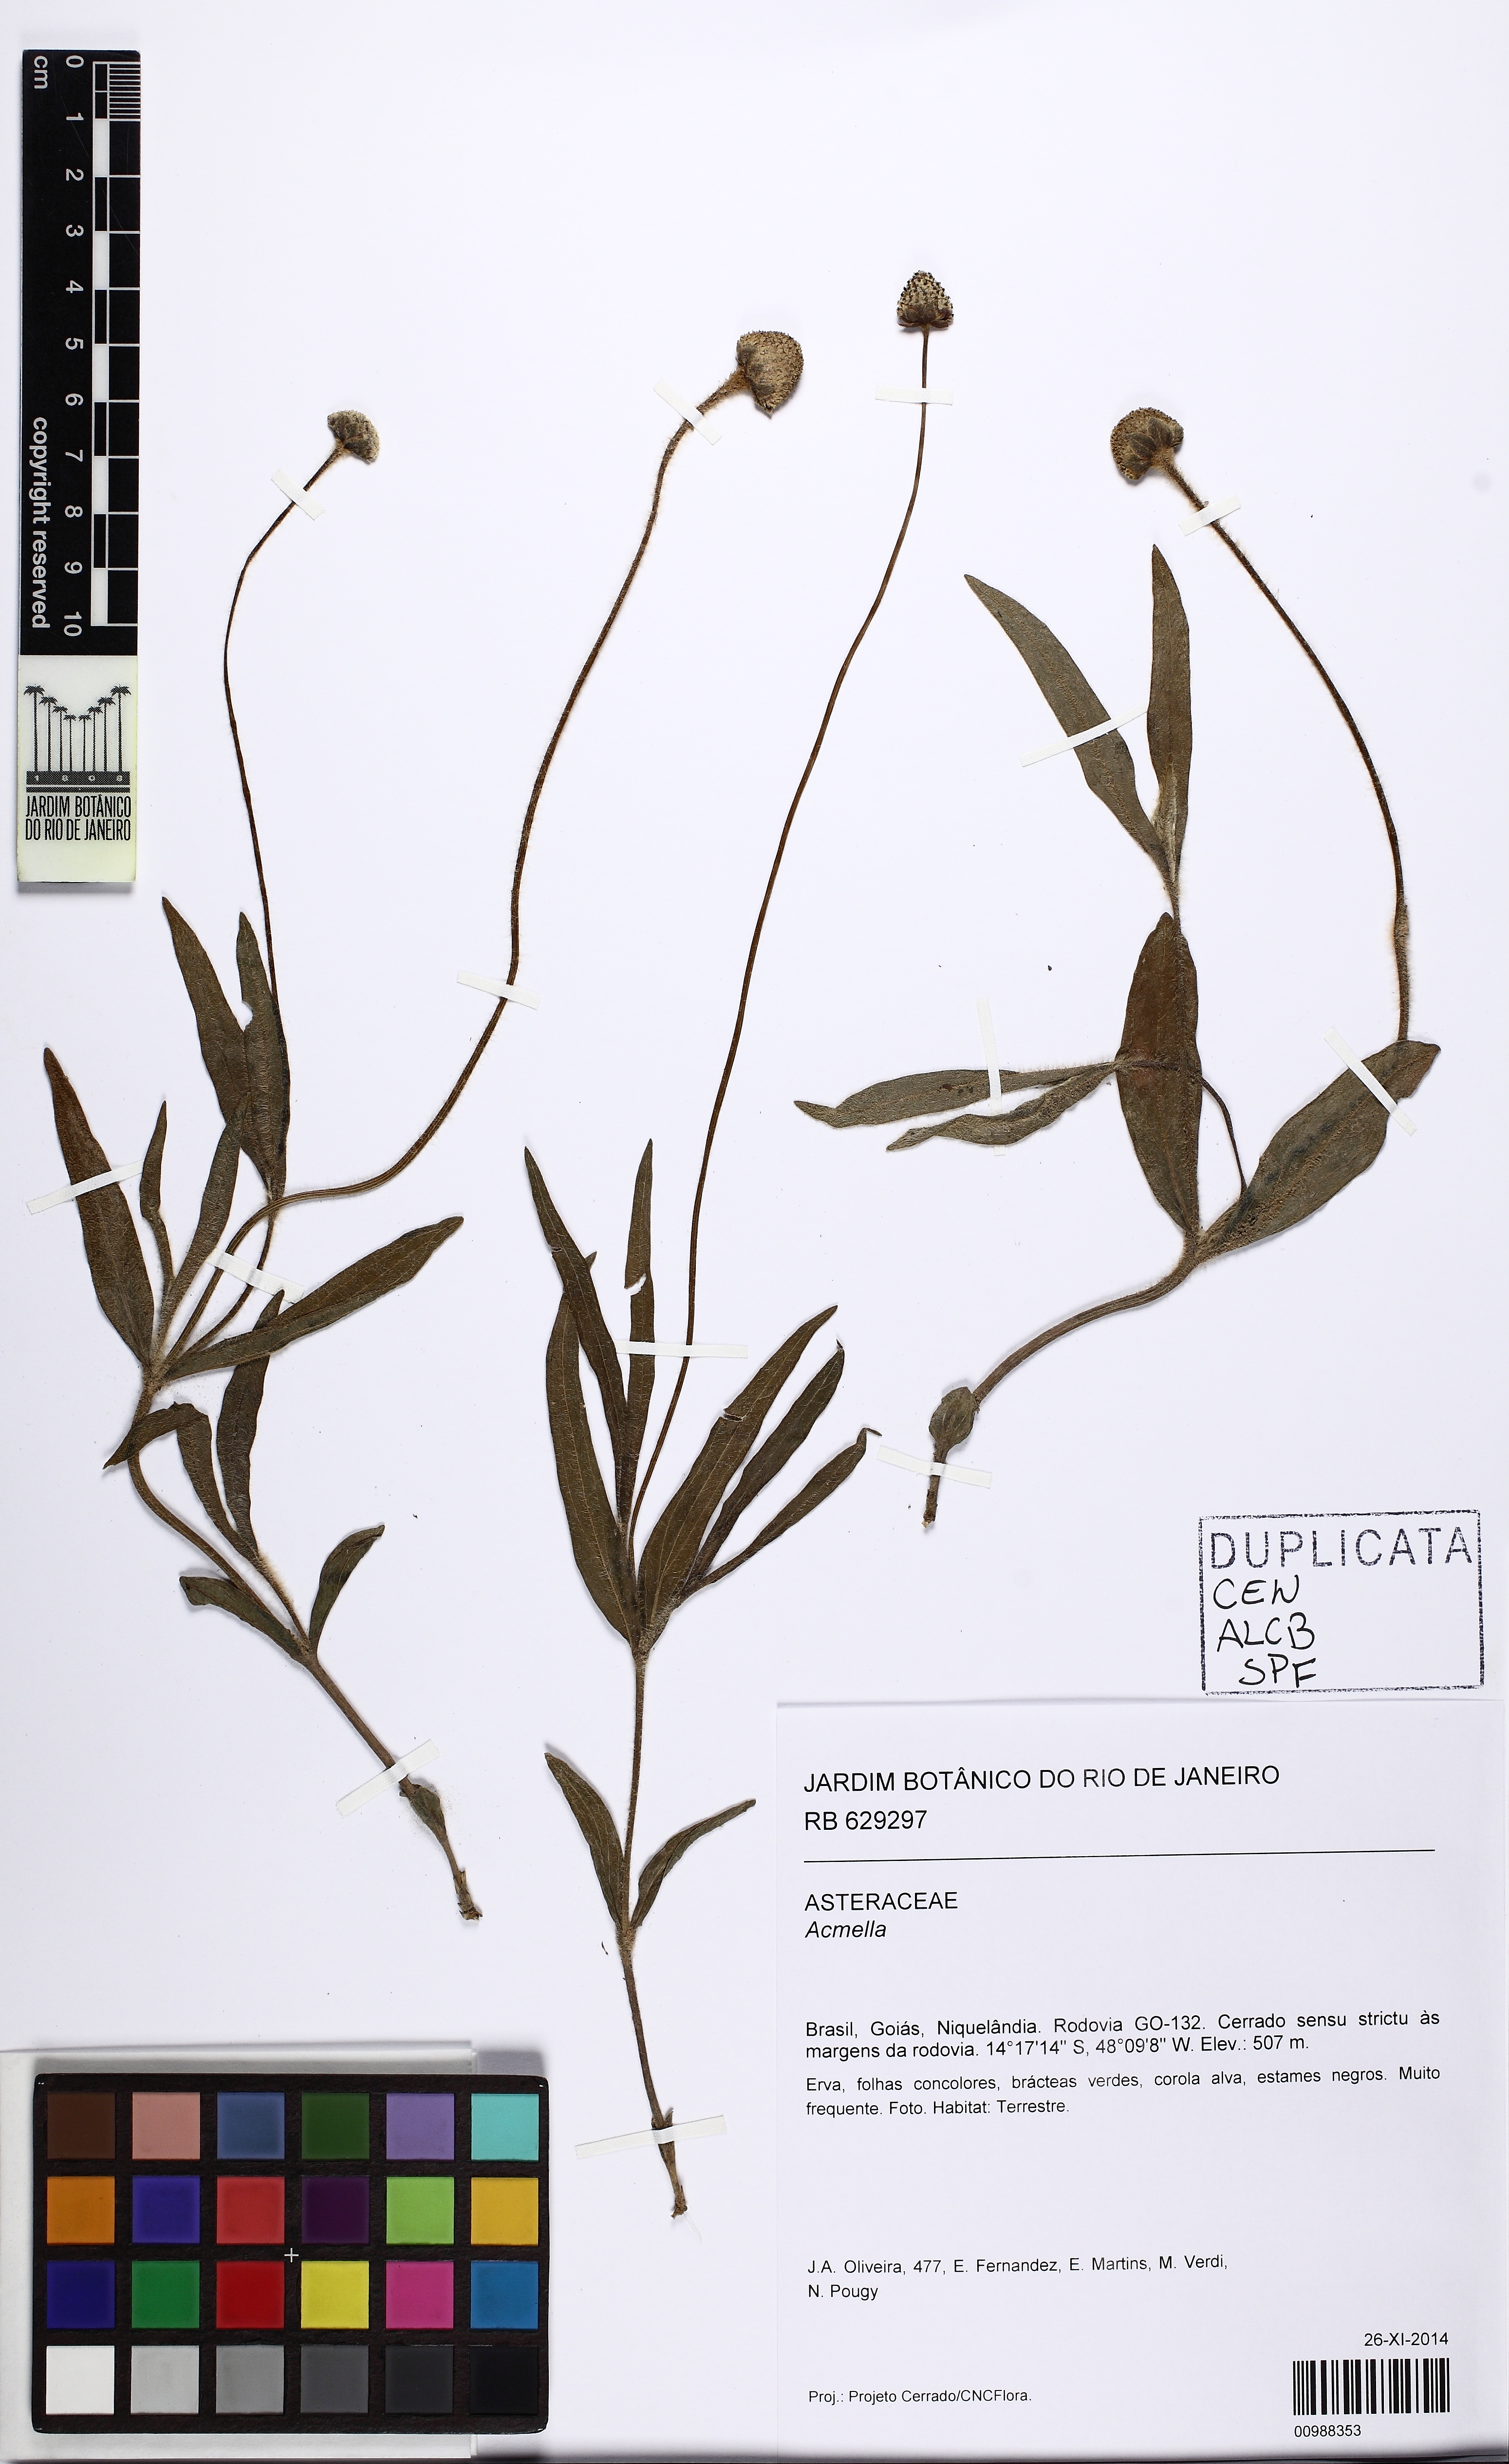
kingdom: Plantae
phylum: Tracheophyta
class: Magnoliopsida
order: Asterales
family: Asteraceae
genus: Acmella
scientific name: Acmella
